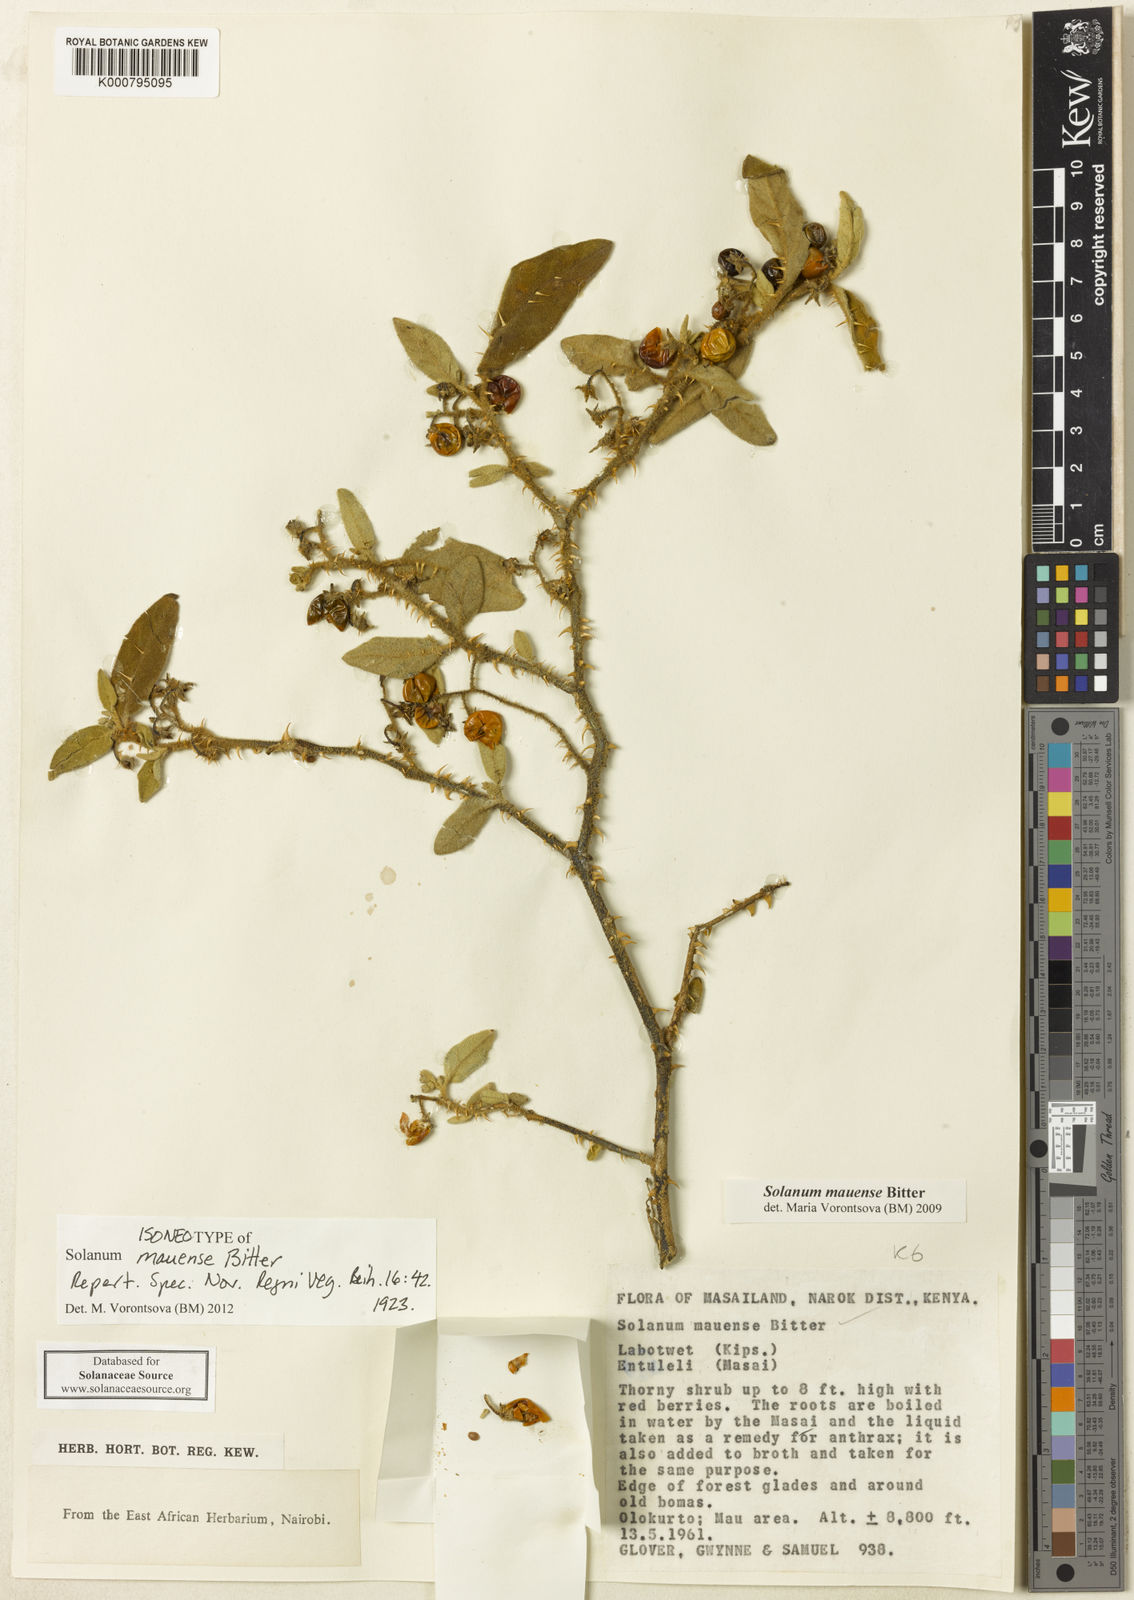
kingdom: Plantae
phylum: Tracheophyta
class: Magnoliopsida
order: Solanales
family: Solanaceae
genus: Solanum
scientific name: Solanum mauense
